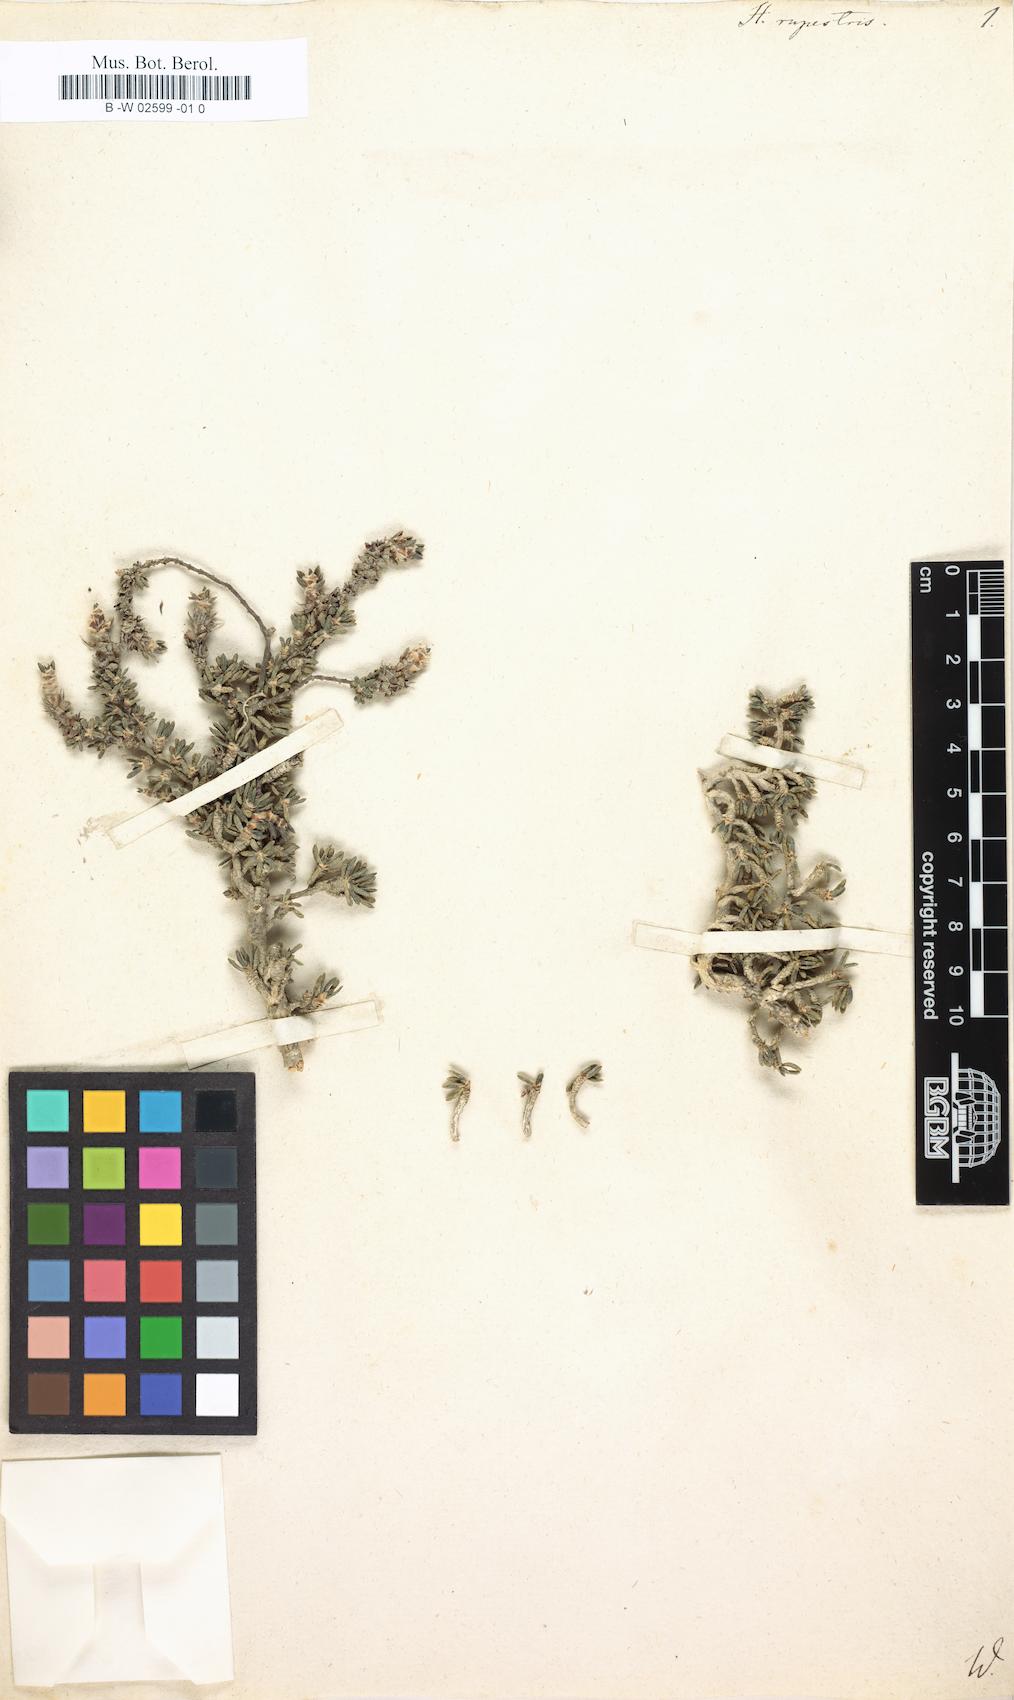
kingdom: Plantae
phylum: Tracheophyta
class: Magnoliopsida
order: Gentianales
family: Rubiaceae
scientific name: Rubiaceae
